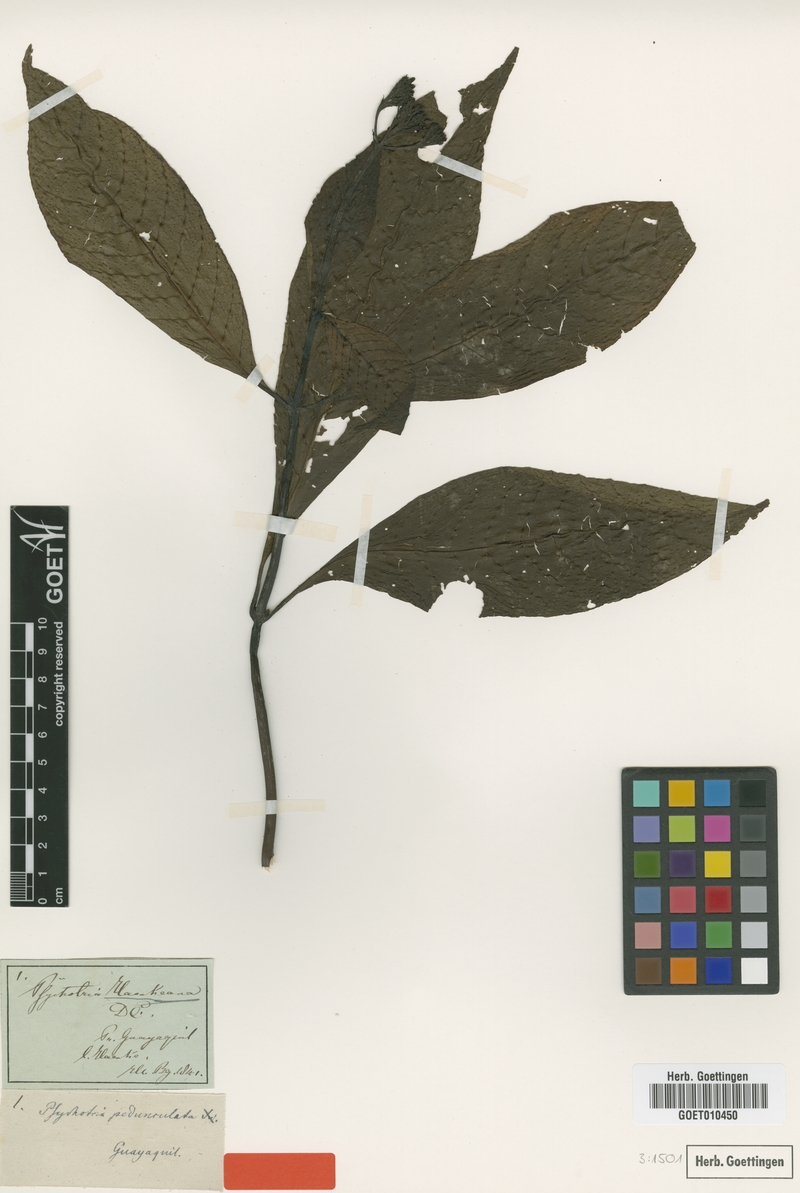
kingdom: Plantae
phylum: Tracheophyta
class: Magnoliopsida
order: Gentianales
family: Rubiaceae
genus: Palicourea
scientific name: Palicourea conferta
